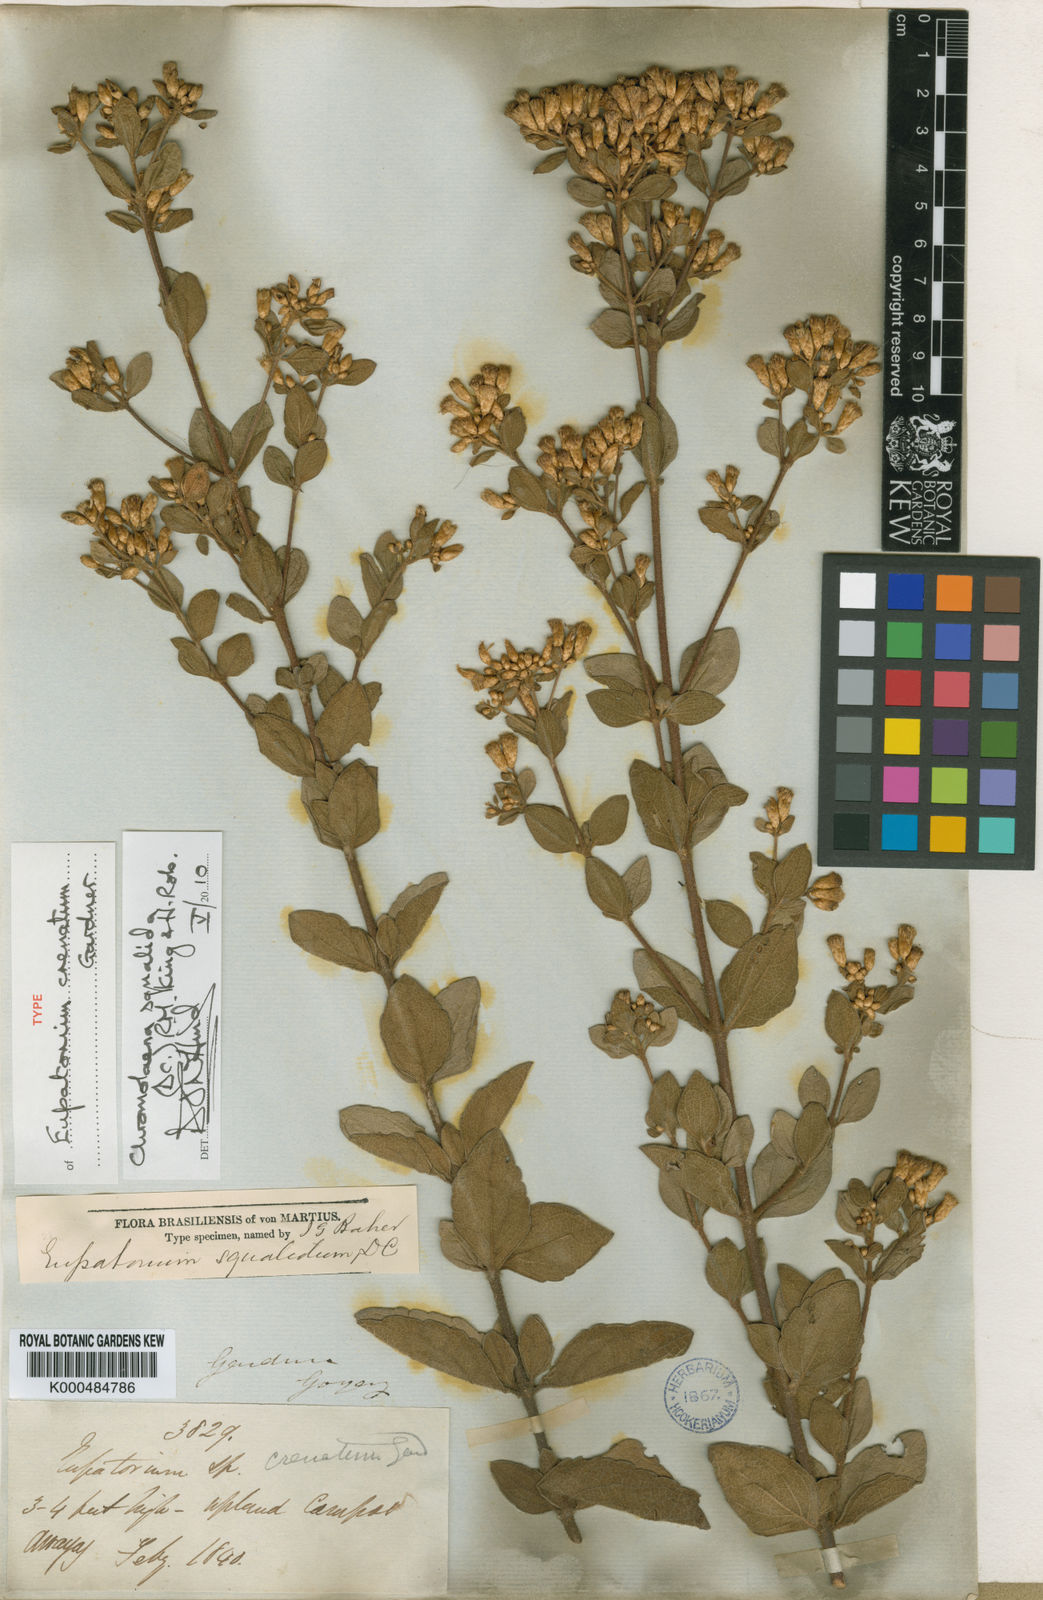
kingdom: Plantae
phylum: Tracheophyta
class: Magnoliopsida
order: Asterales
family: Asteraceae
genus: Chromolaena
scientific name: Chromolaena squalida
